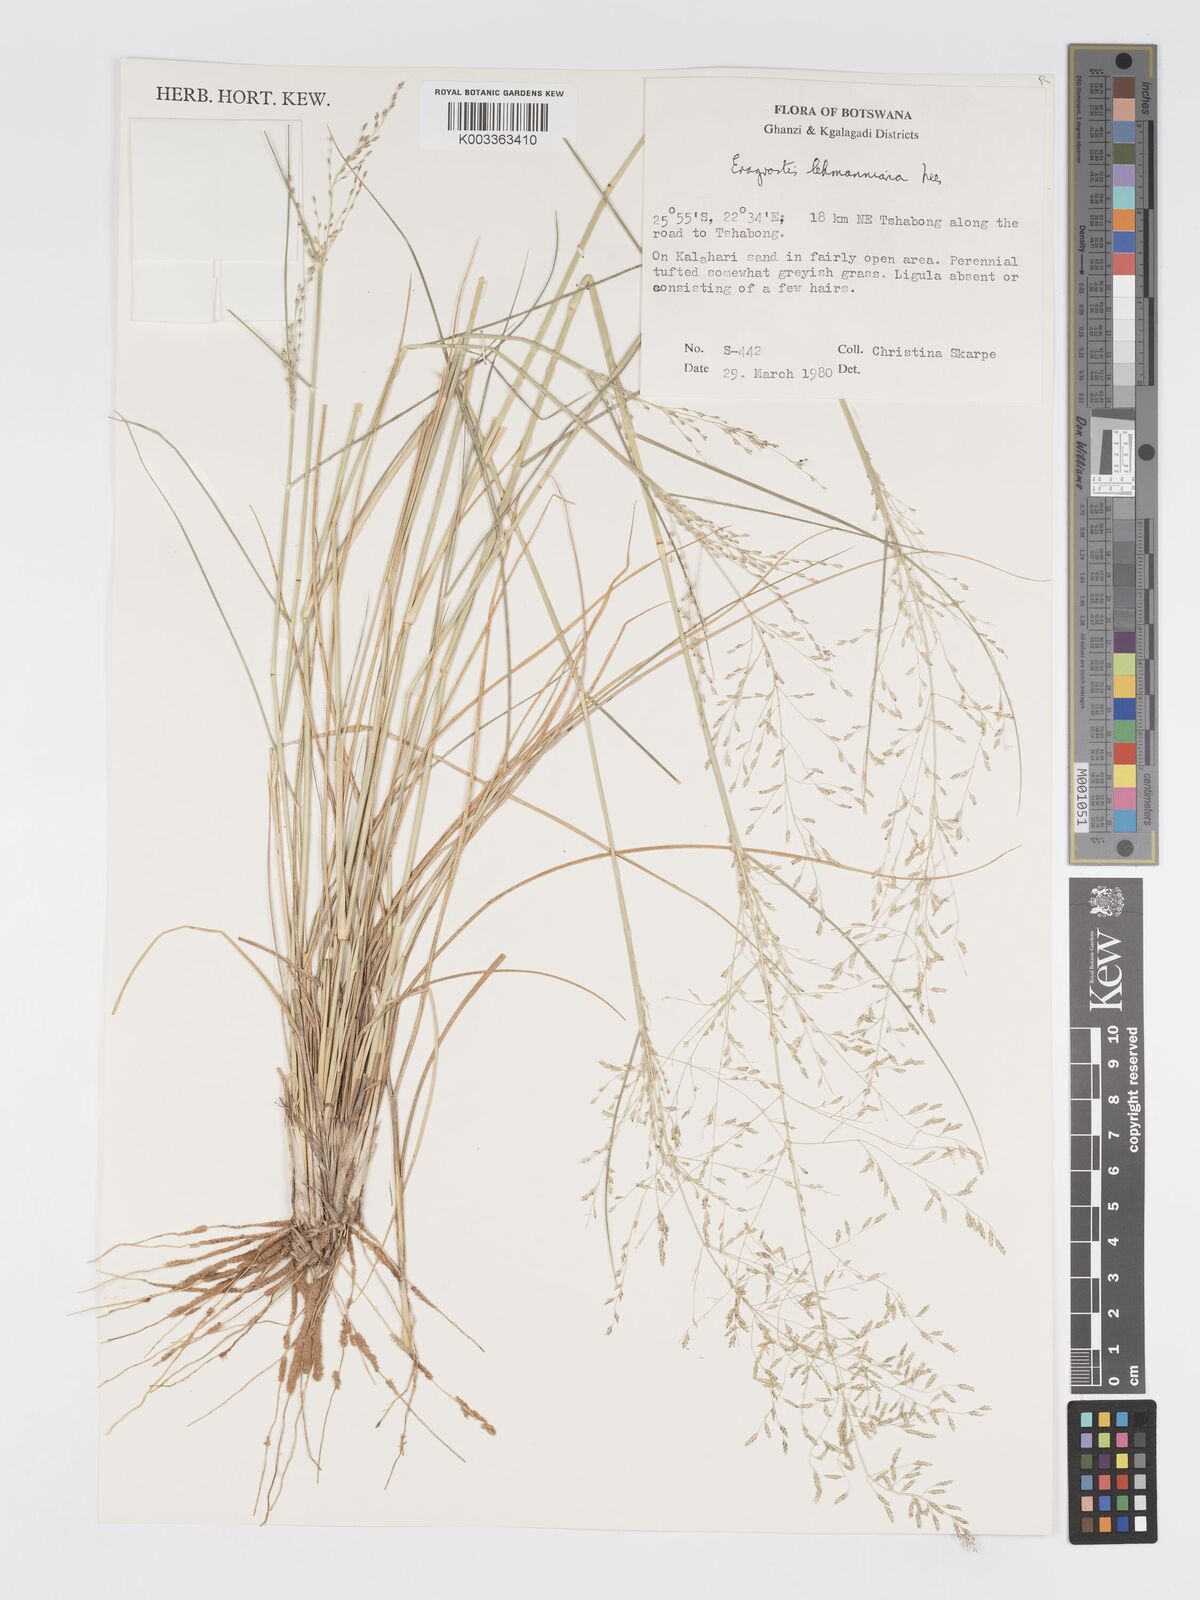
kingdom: Plantae
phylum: Tracheophyta
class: Liliopsida
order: Poales
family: Poaceae
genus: Eragrostis
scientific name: Eragrostis lehmanniana
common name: Lehmann lovegrass
